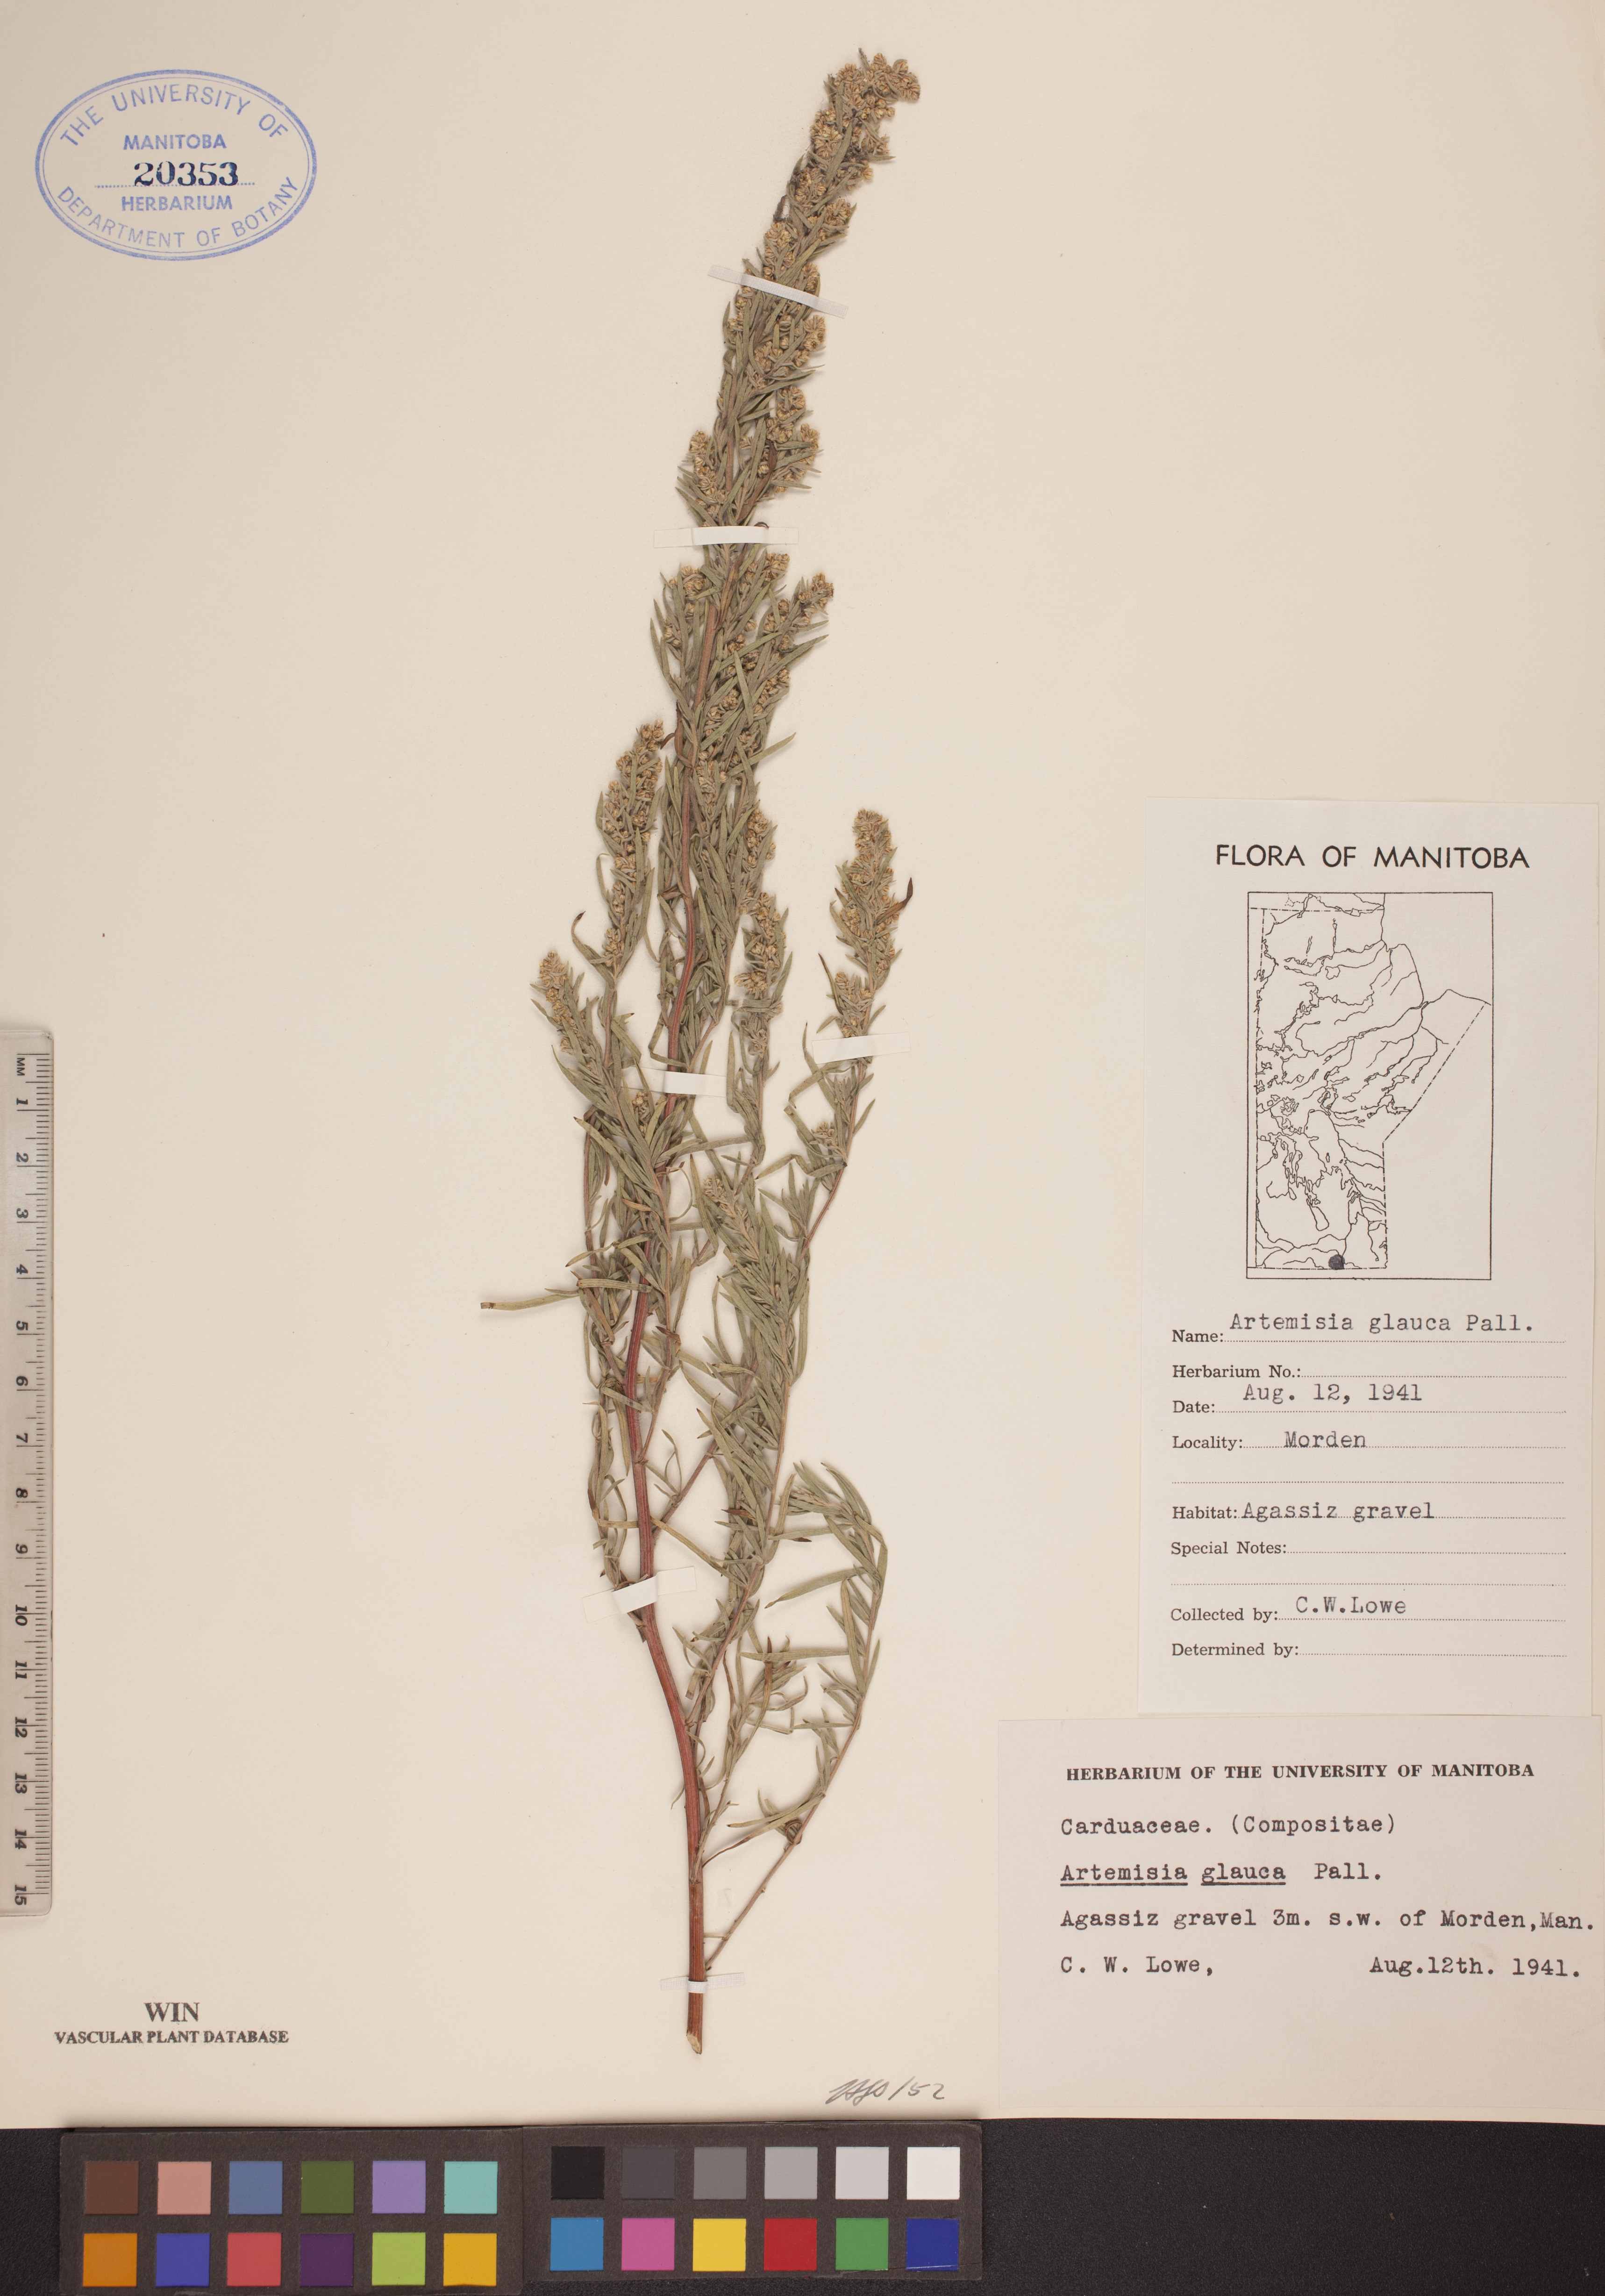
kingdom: Plantae
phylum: Tracheophyta
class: Magnoliopsida
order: Asterales
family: Asteraceae
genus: Artemisia
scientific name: Artemisia glauca
